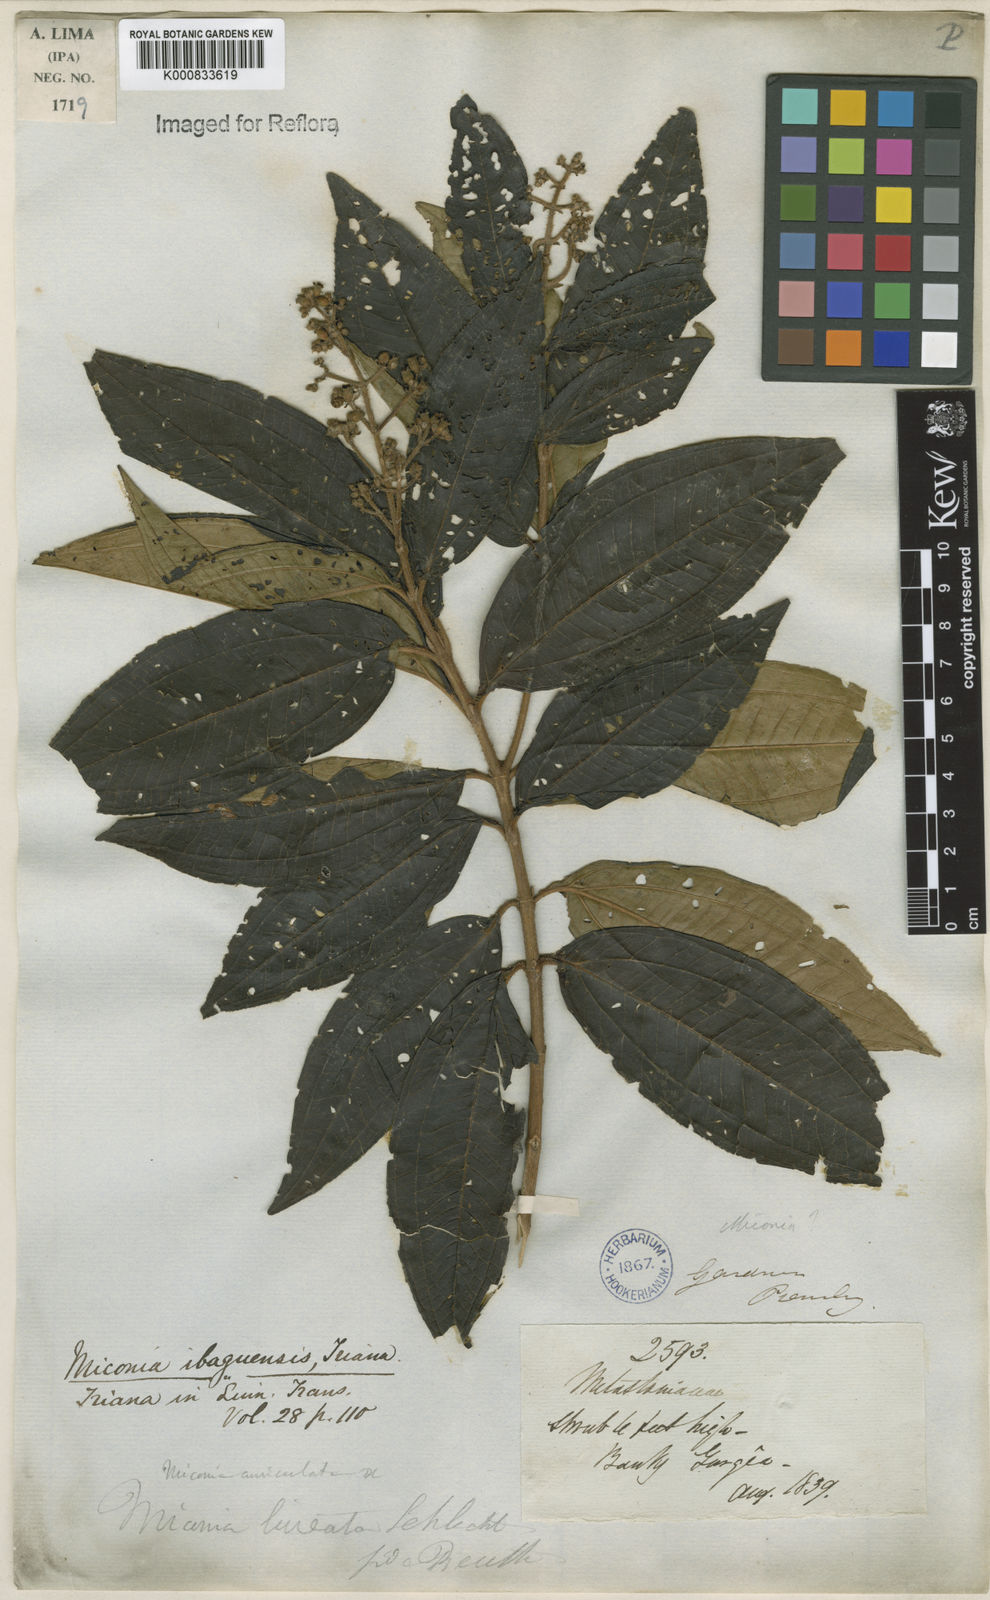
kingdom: Plantae
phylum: Tracheophyta
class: Magnoliopsida
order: Myrtales
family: Melastomataceae
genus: Miconia
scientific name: Miconia ibaguensis
